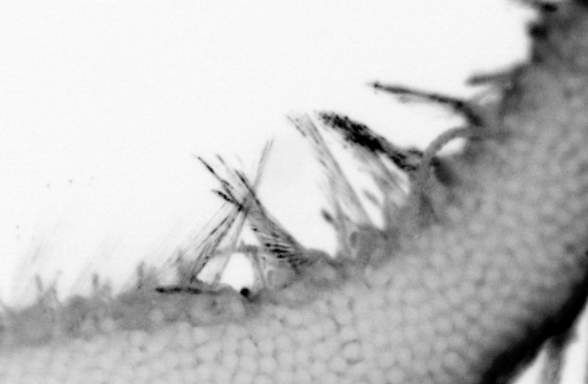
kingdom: Animalia
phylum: Annelida
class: Polychaeta
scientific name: Polychaeta
